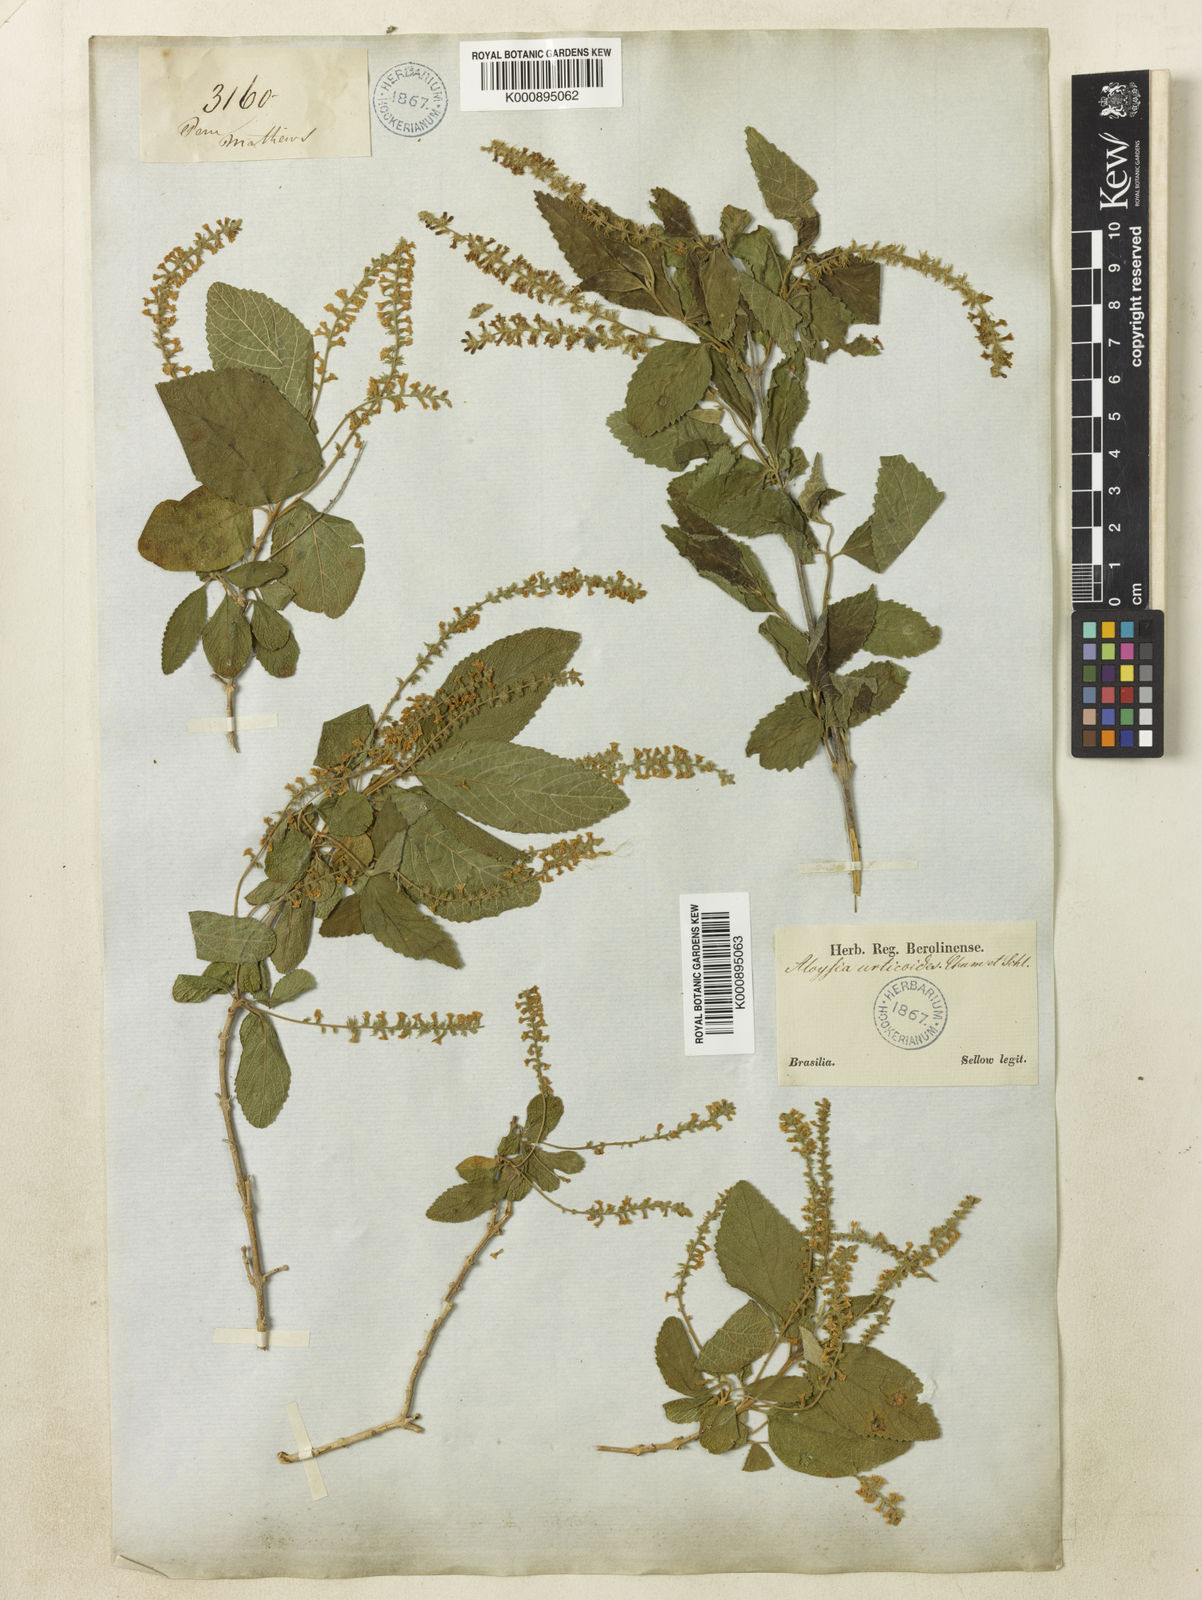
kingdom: Plantae
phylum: Tracheophyta
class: Magnoliopsida
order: Lamiales
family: Verbenaceae
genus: Aloysia
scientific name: Aloysia virgata
